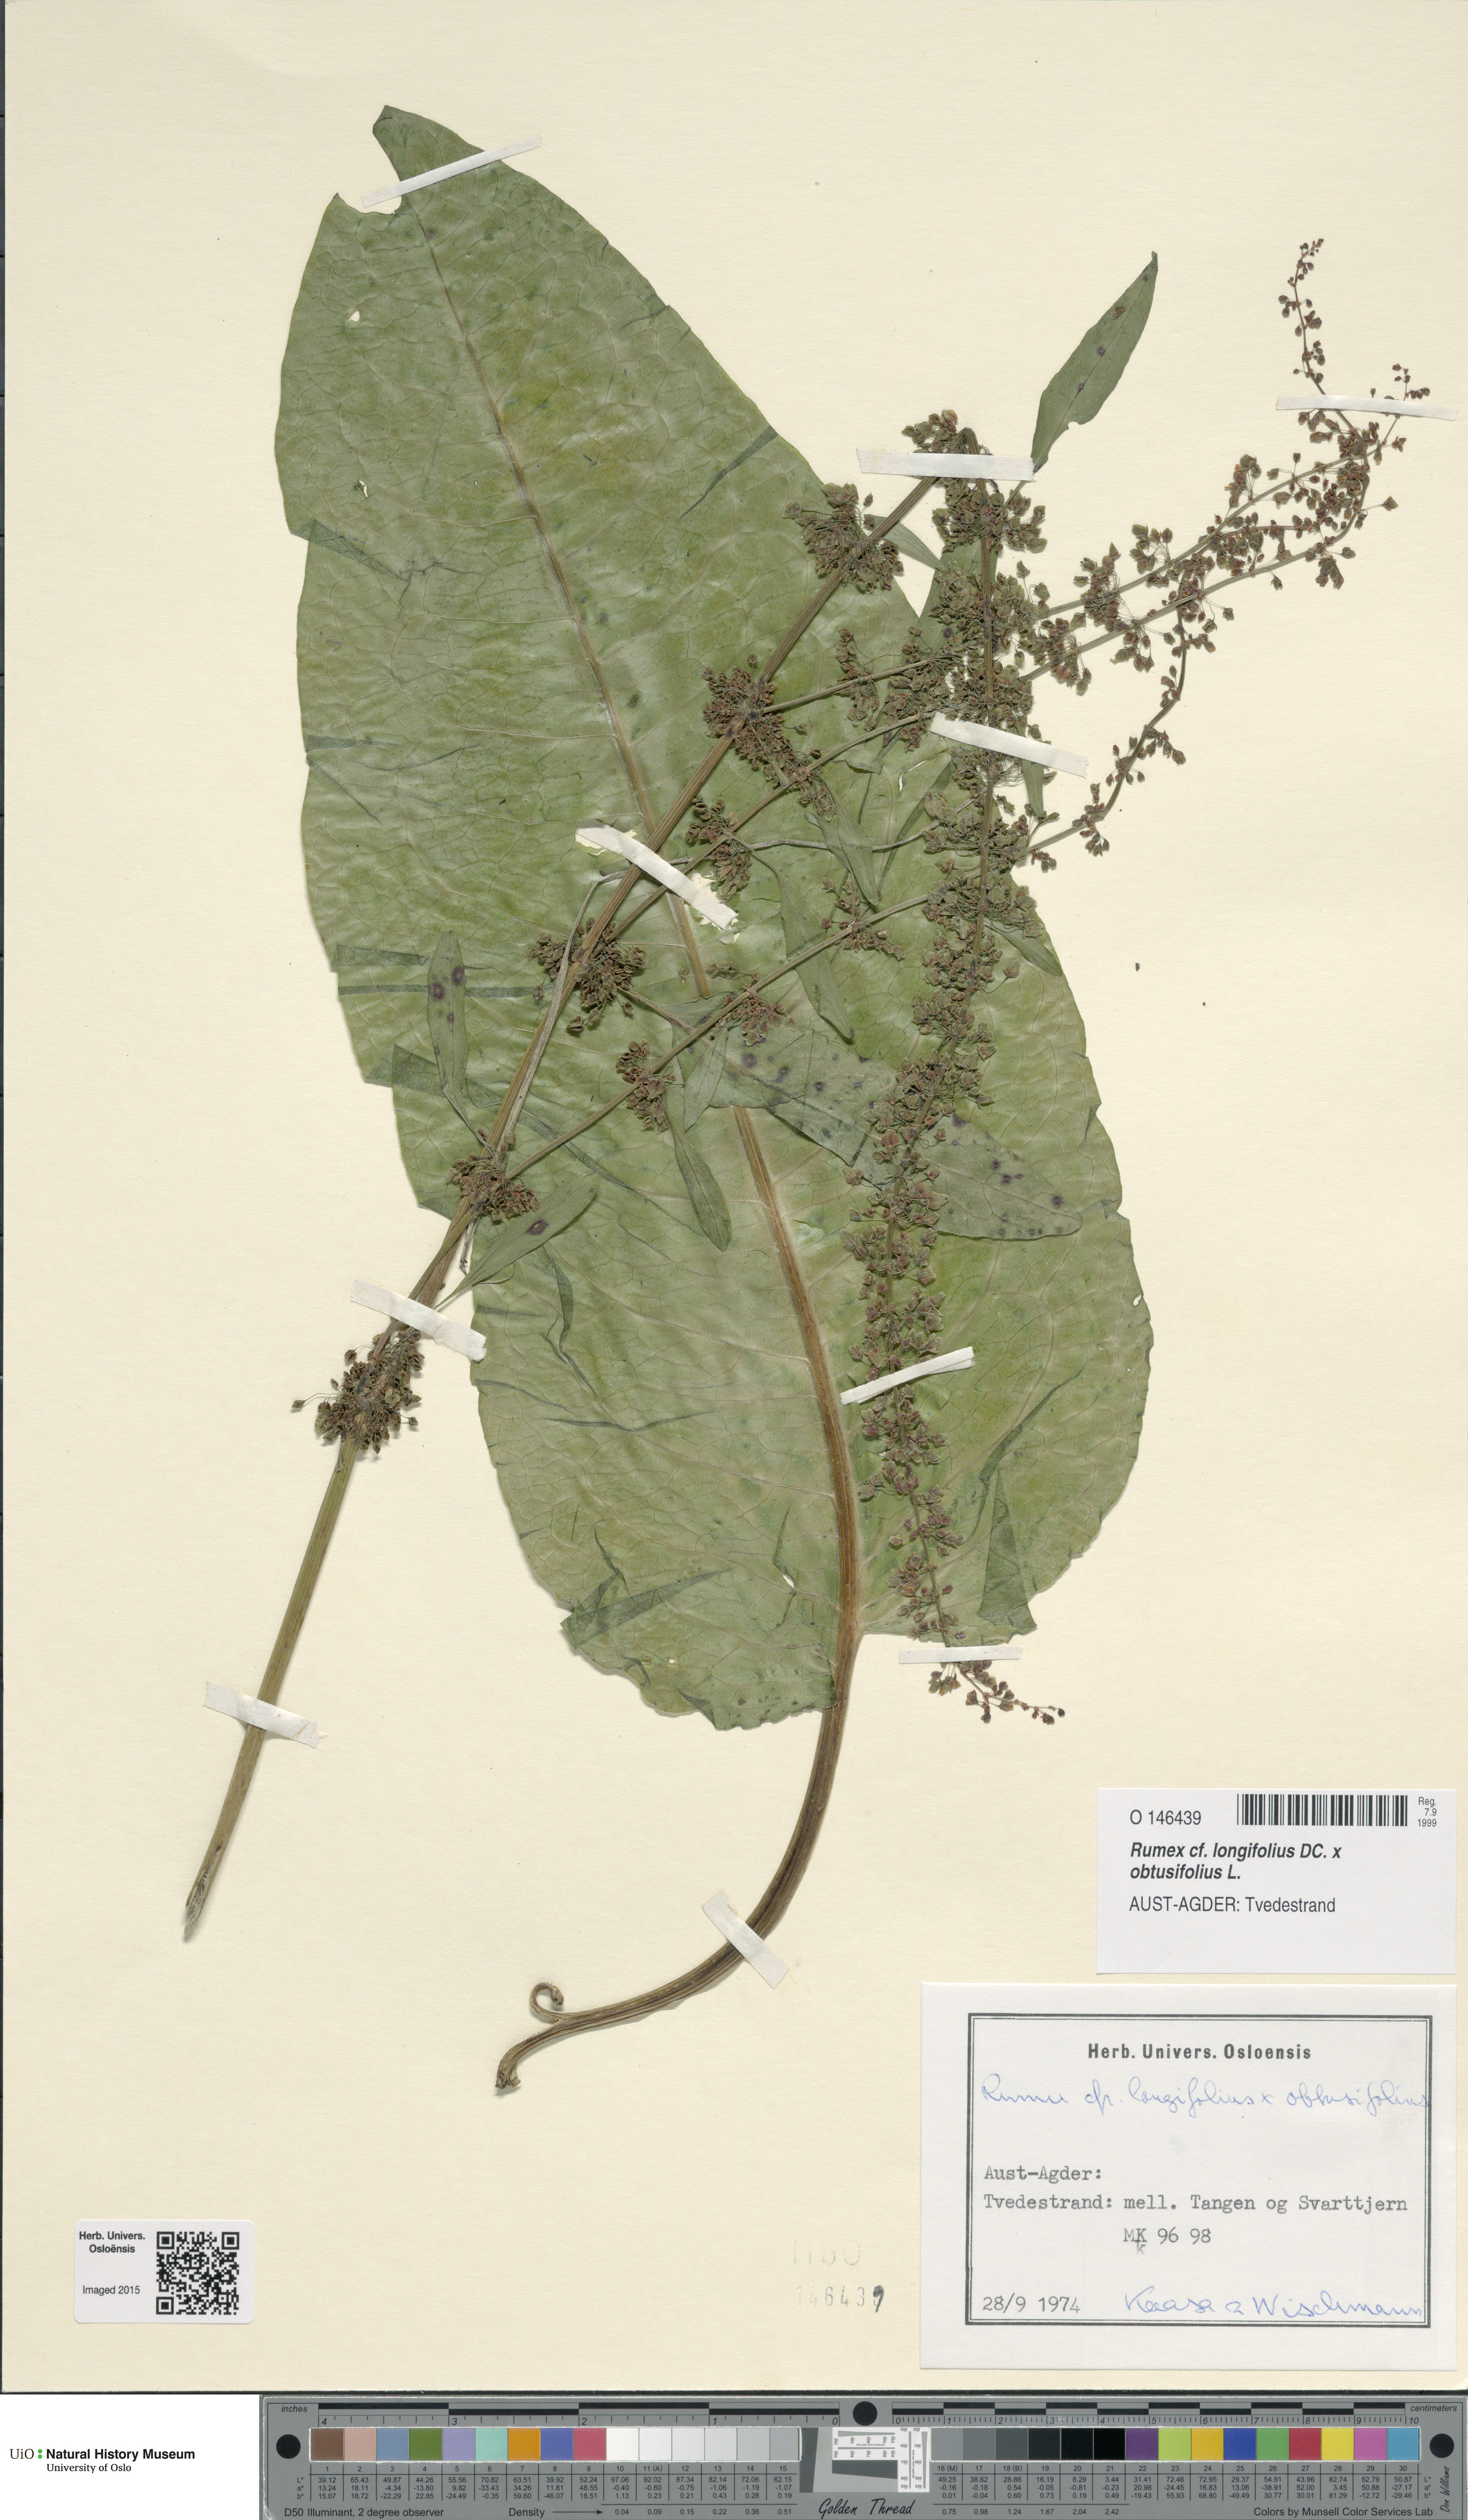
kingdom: Plantae
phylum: Tracheophyta
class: Magnoliopsida
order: Caryophyllales
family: Polygonaceae
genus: Rumex
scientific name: Rumex
